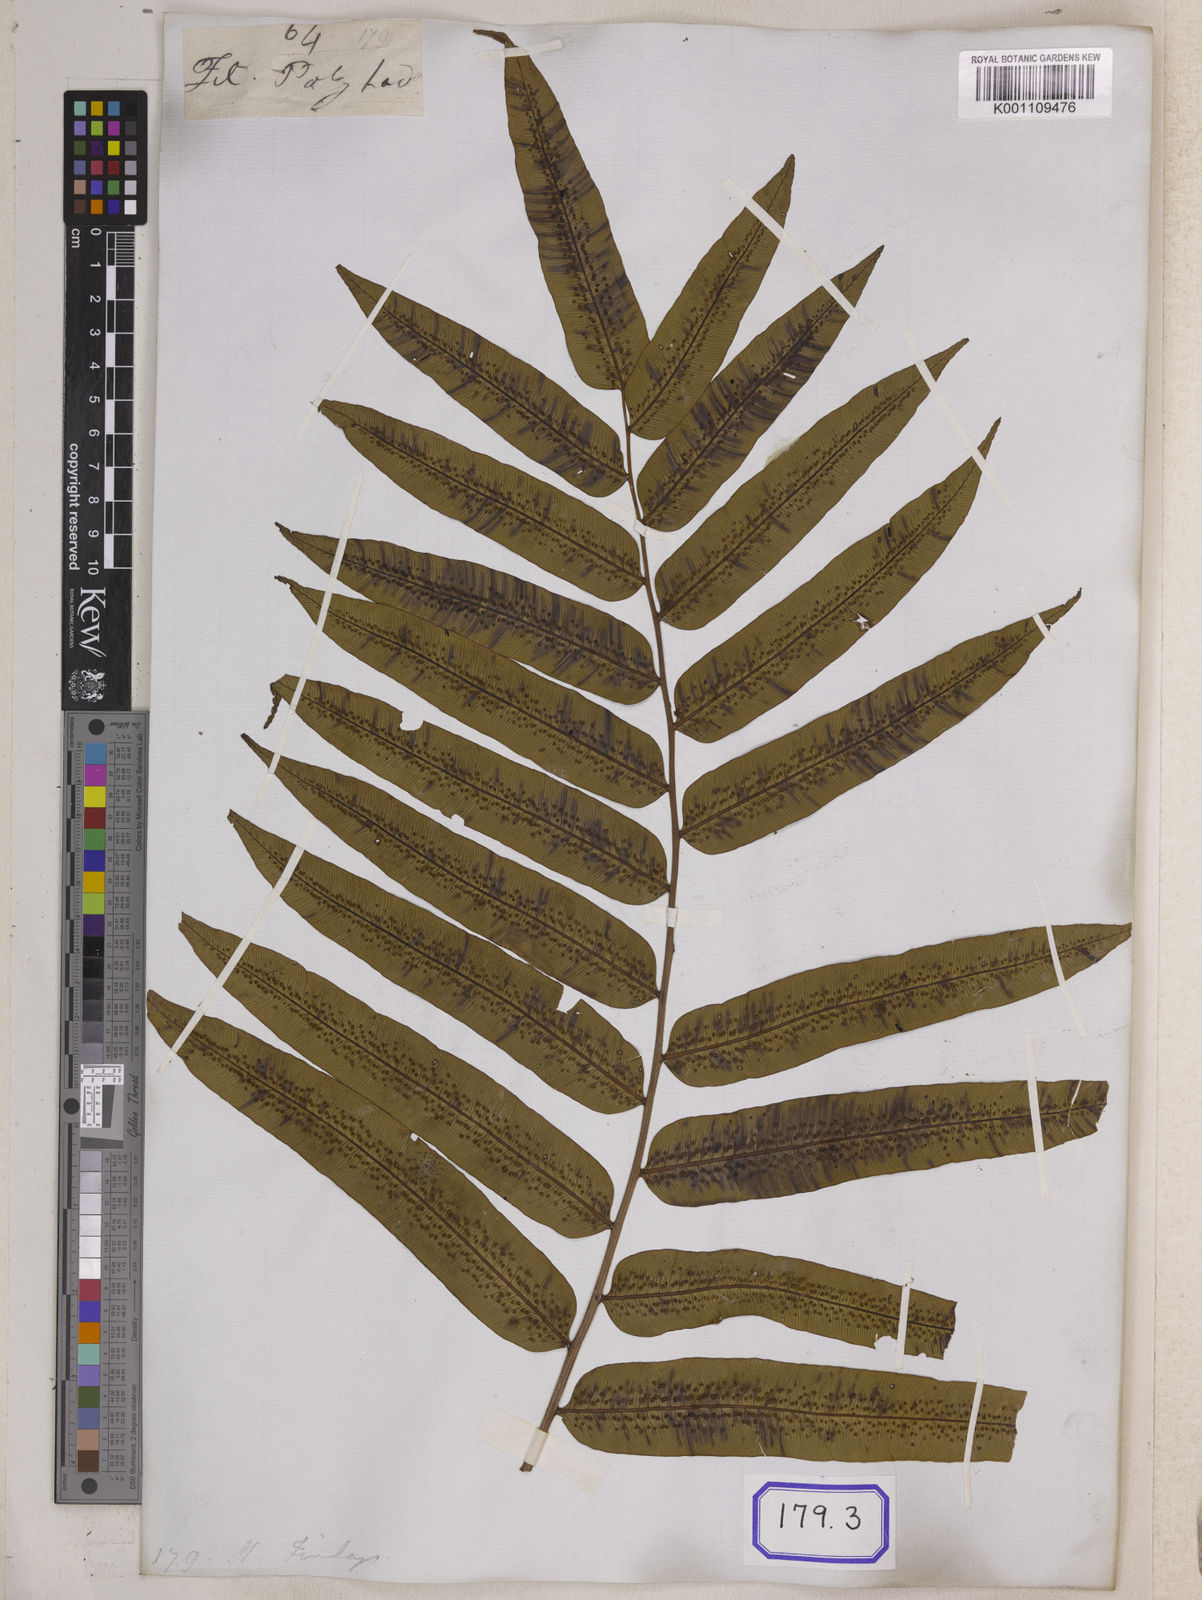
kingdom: Plantae
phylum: Tracheophyta
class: Polypodiopsida
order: Cyatheales
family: Cyatheaceae
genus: Sphaeropteris
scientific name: Sphaeropteris moluccana
